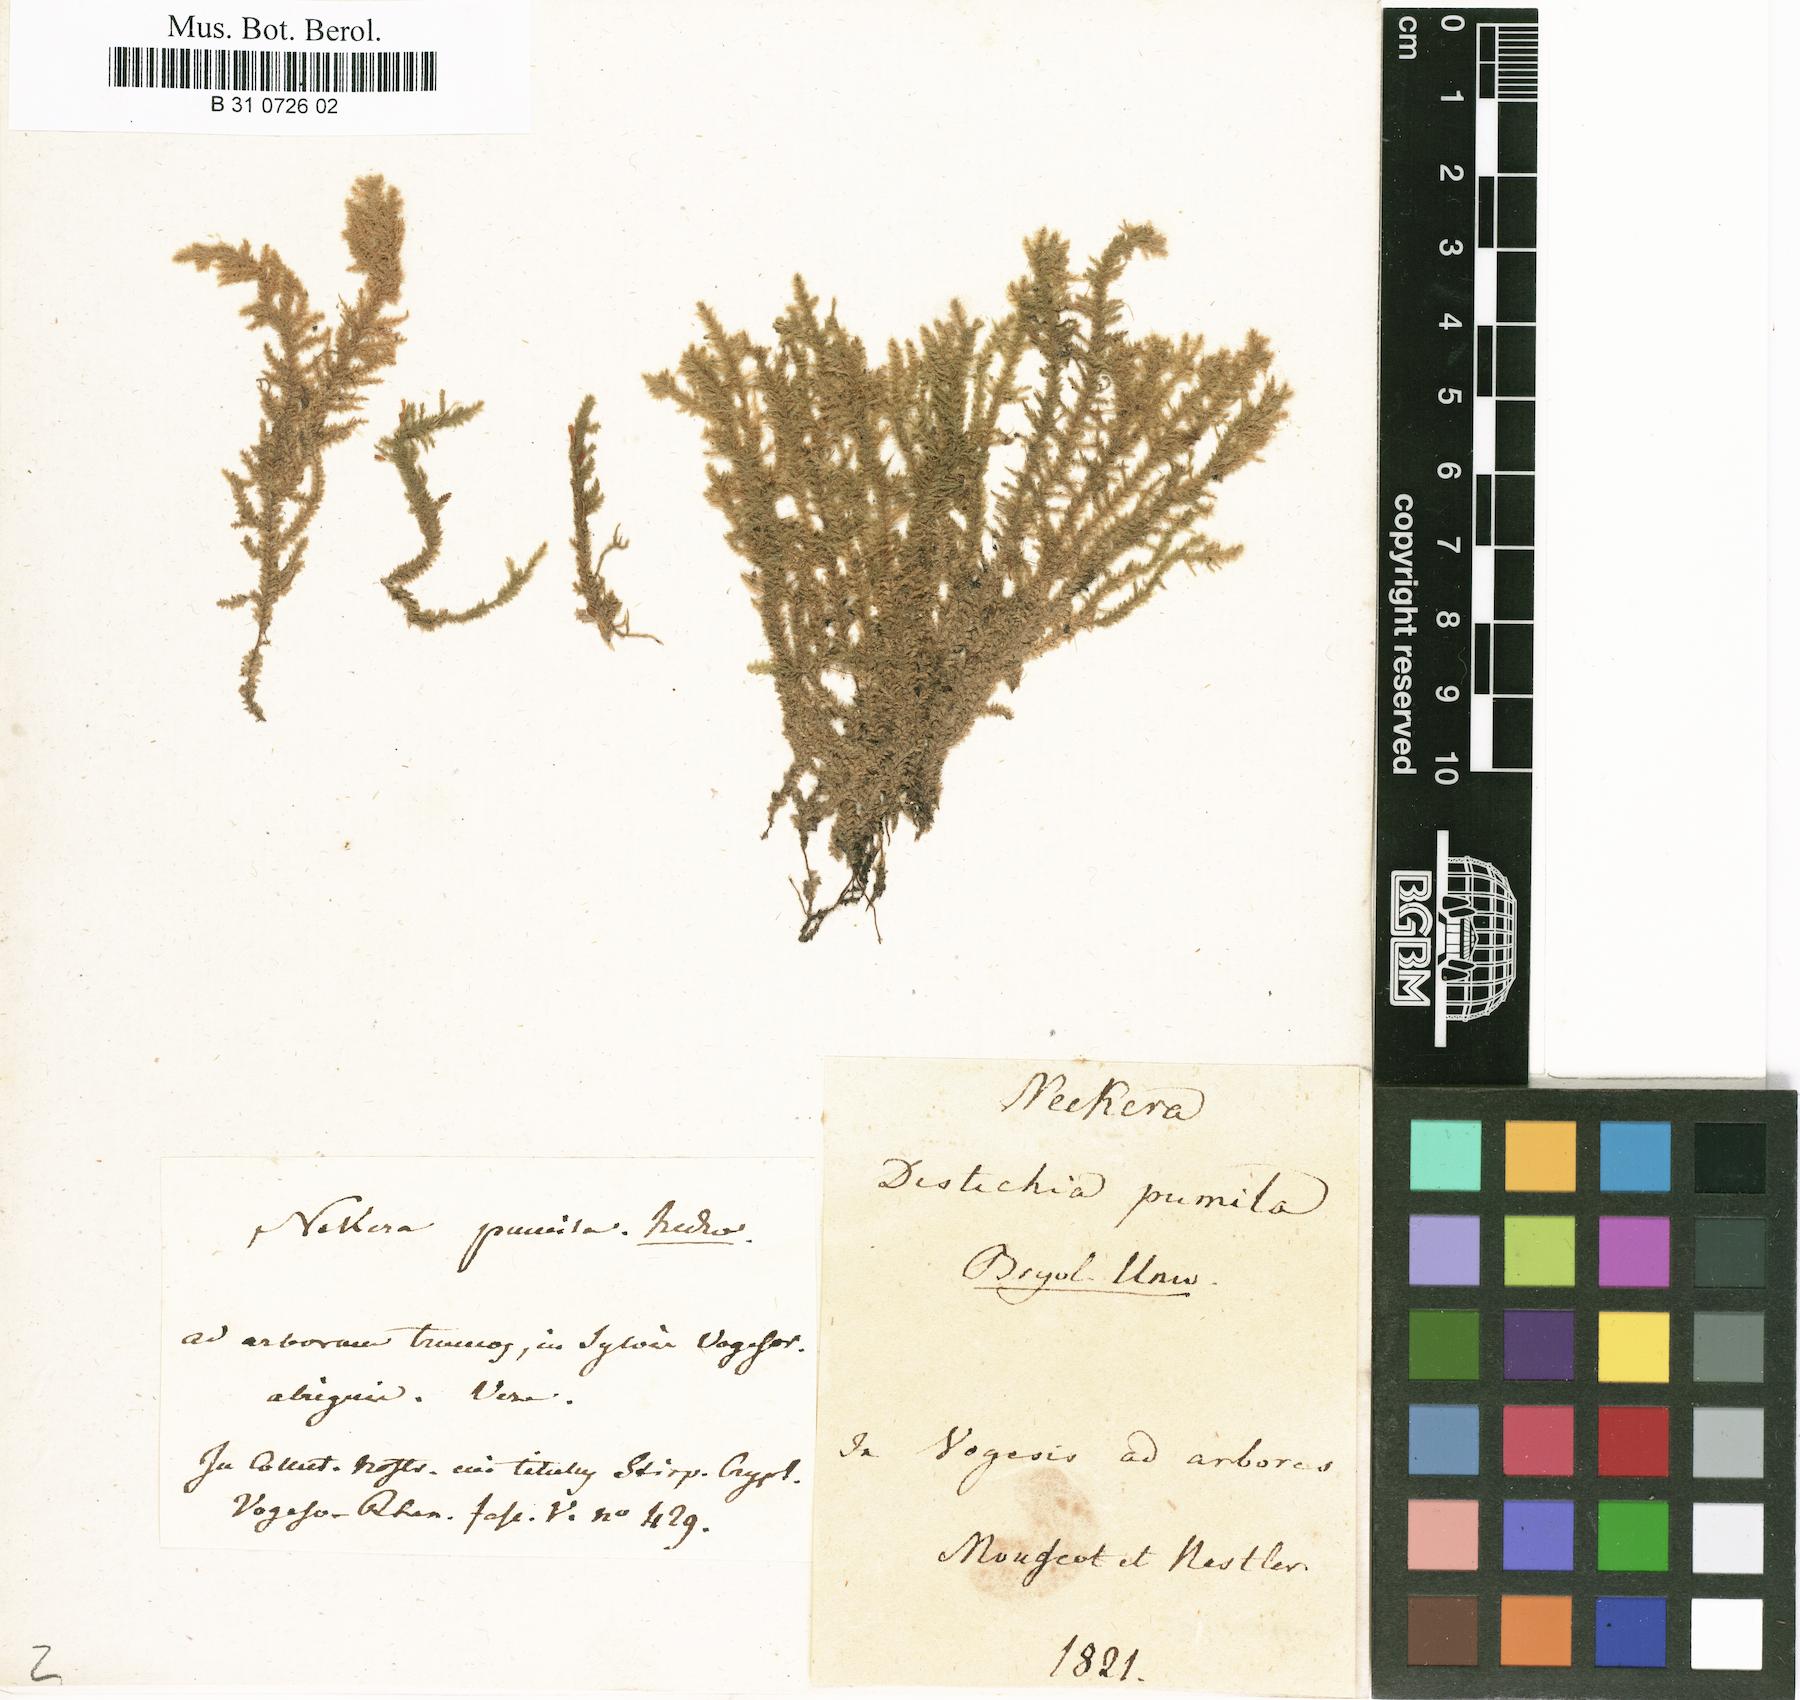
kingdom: Plantae
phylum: Bryophyta
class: Bryopsida
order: Hypnales
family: Neckeraceae
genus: Neckera
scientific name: Neckera pumila
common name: Dwarf neckera
